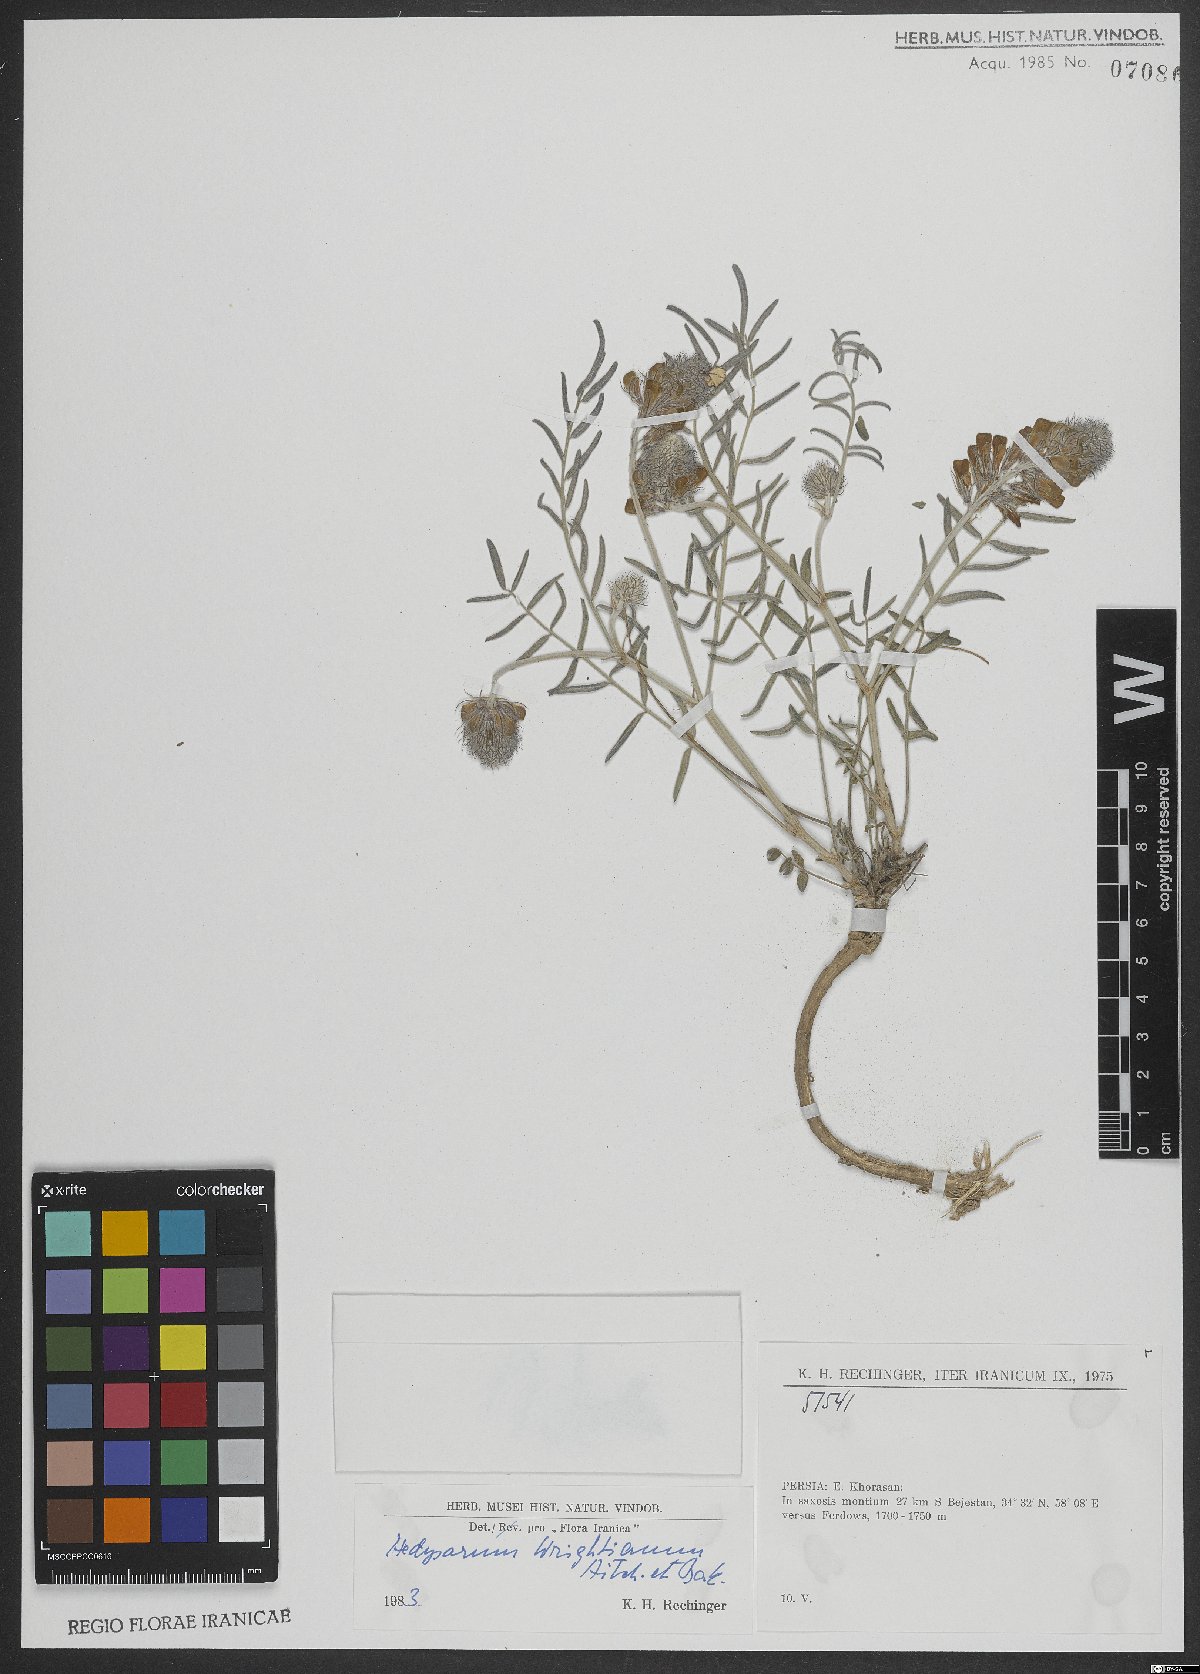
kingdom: Plantae
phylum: Tracheophyta
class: Magnoliopsida
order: Fabales
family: Fabaceae
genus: Hedysarum
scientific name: Hedysarum micropterum
